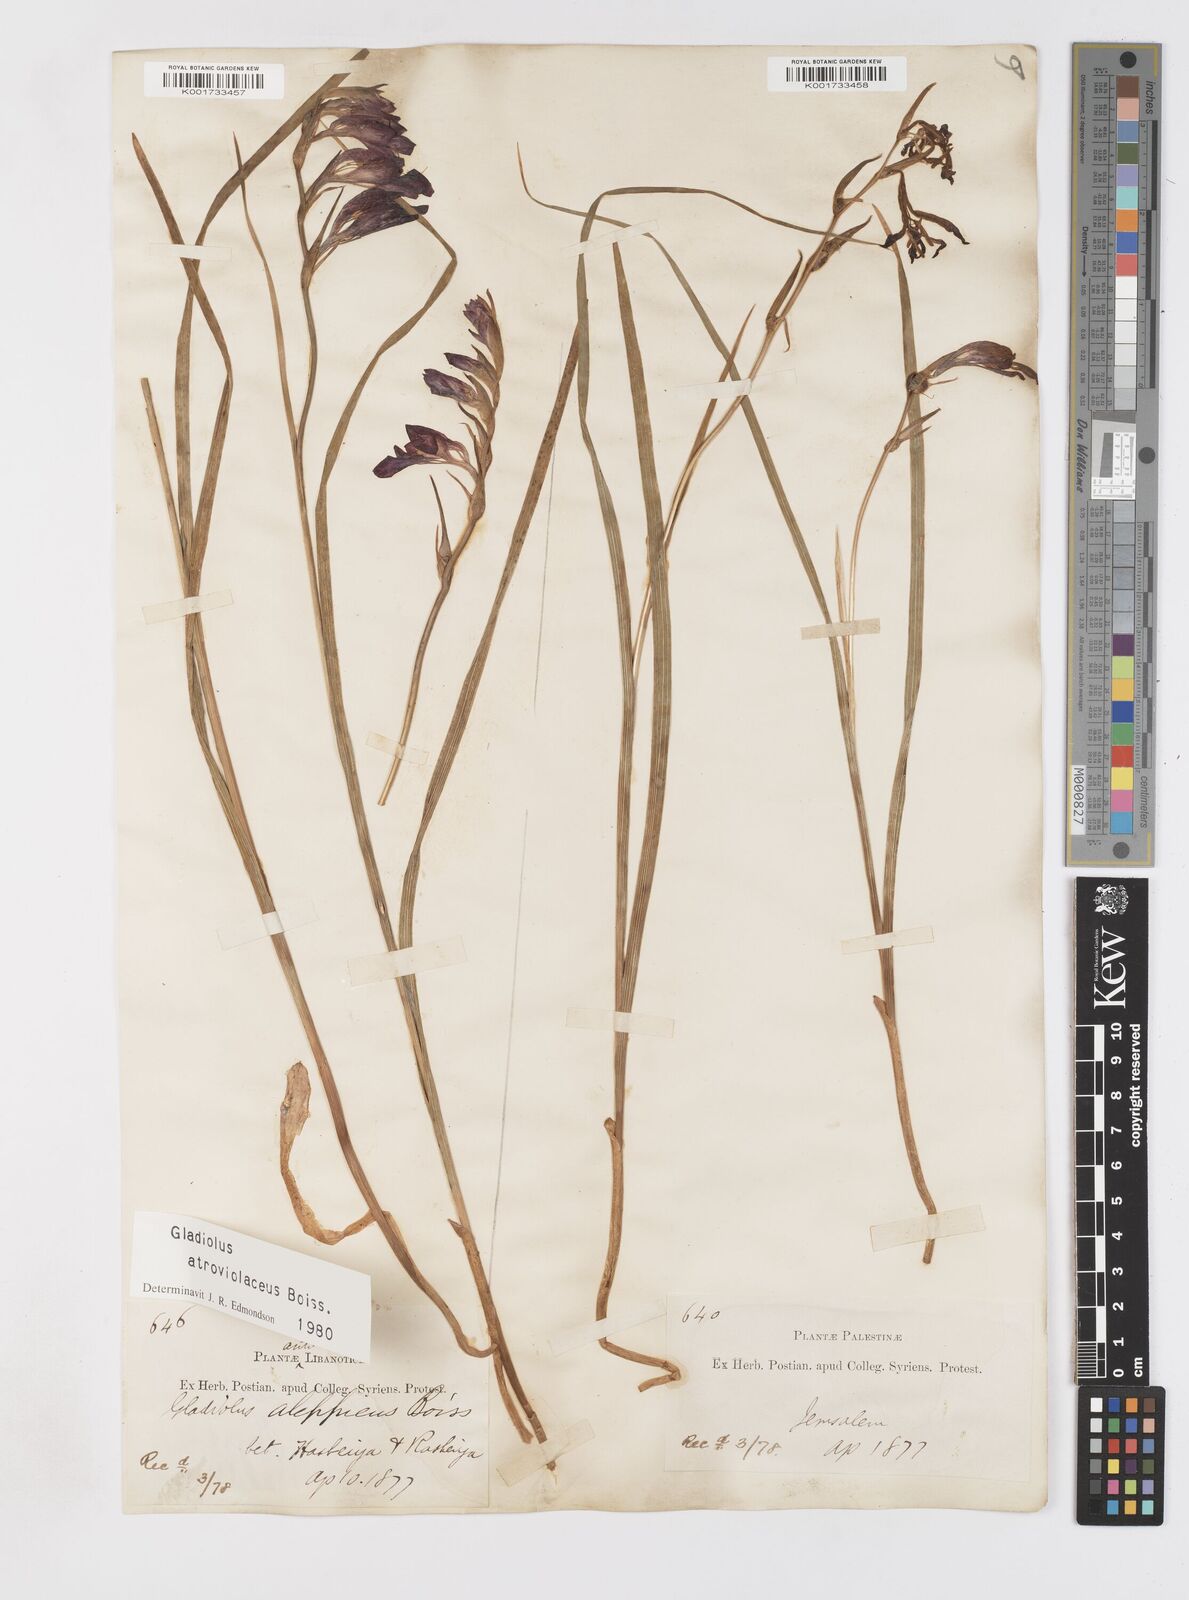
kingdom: Plantae
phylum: Tracheophyta
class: Liliopsida
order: Asparagales
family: Iridaceae
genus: Gladiolus
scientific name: Gladiolus atroviolaceus
